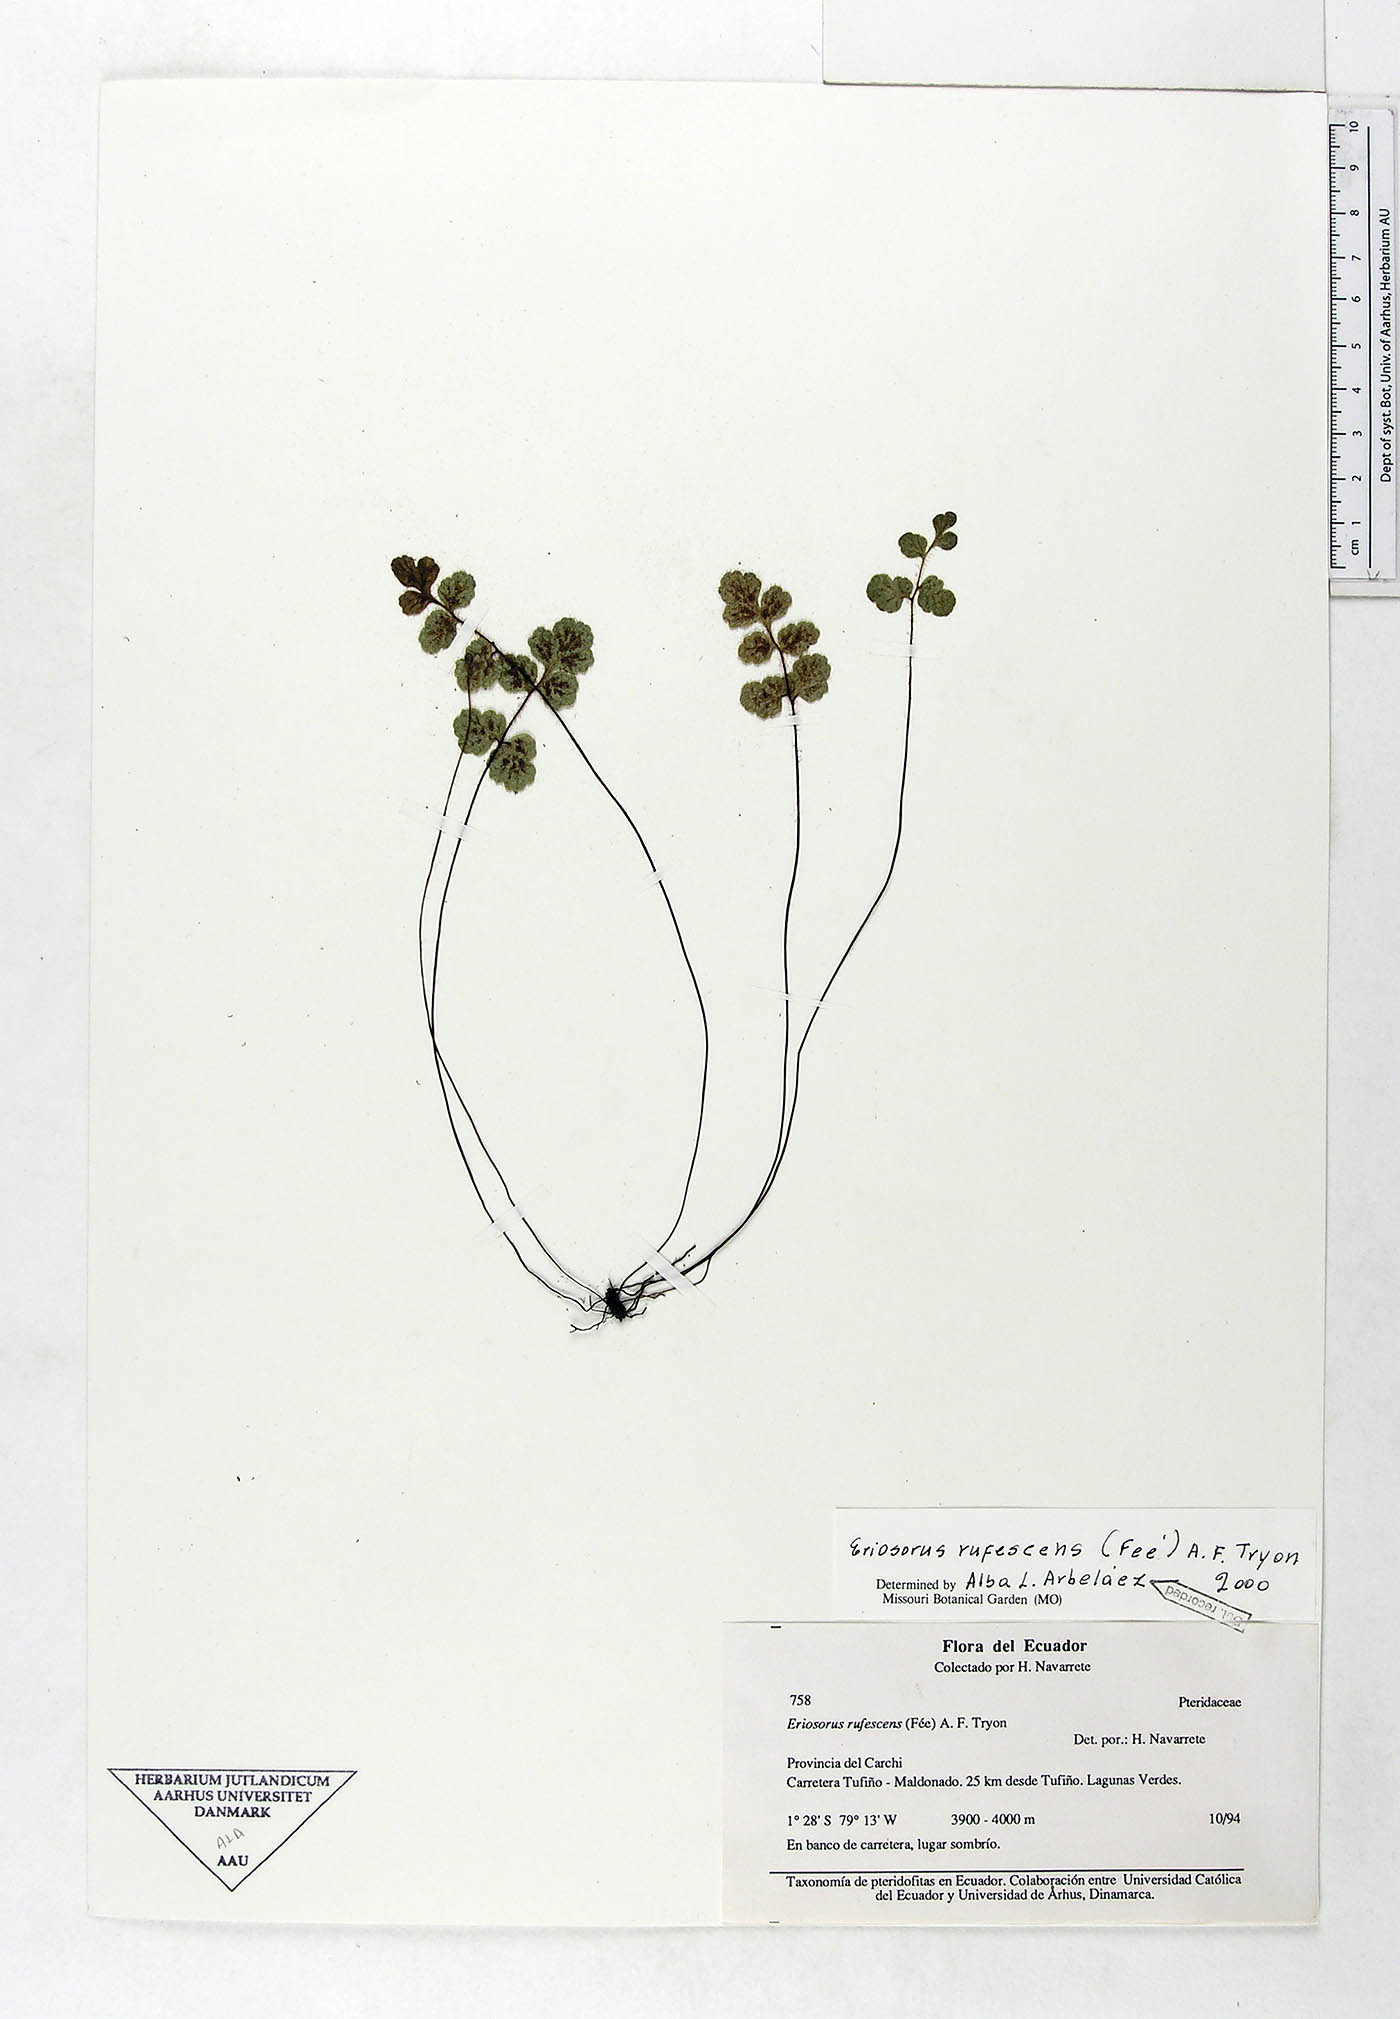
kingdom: Plantae
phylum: Tracheophyta
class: Polypodiopsida
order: Polypodiales
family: Pteridaceae
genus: Jamesonia
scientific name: Jamesonia rufescens
